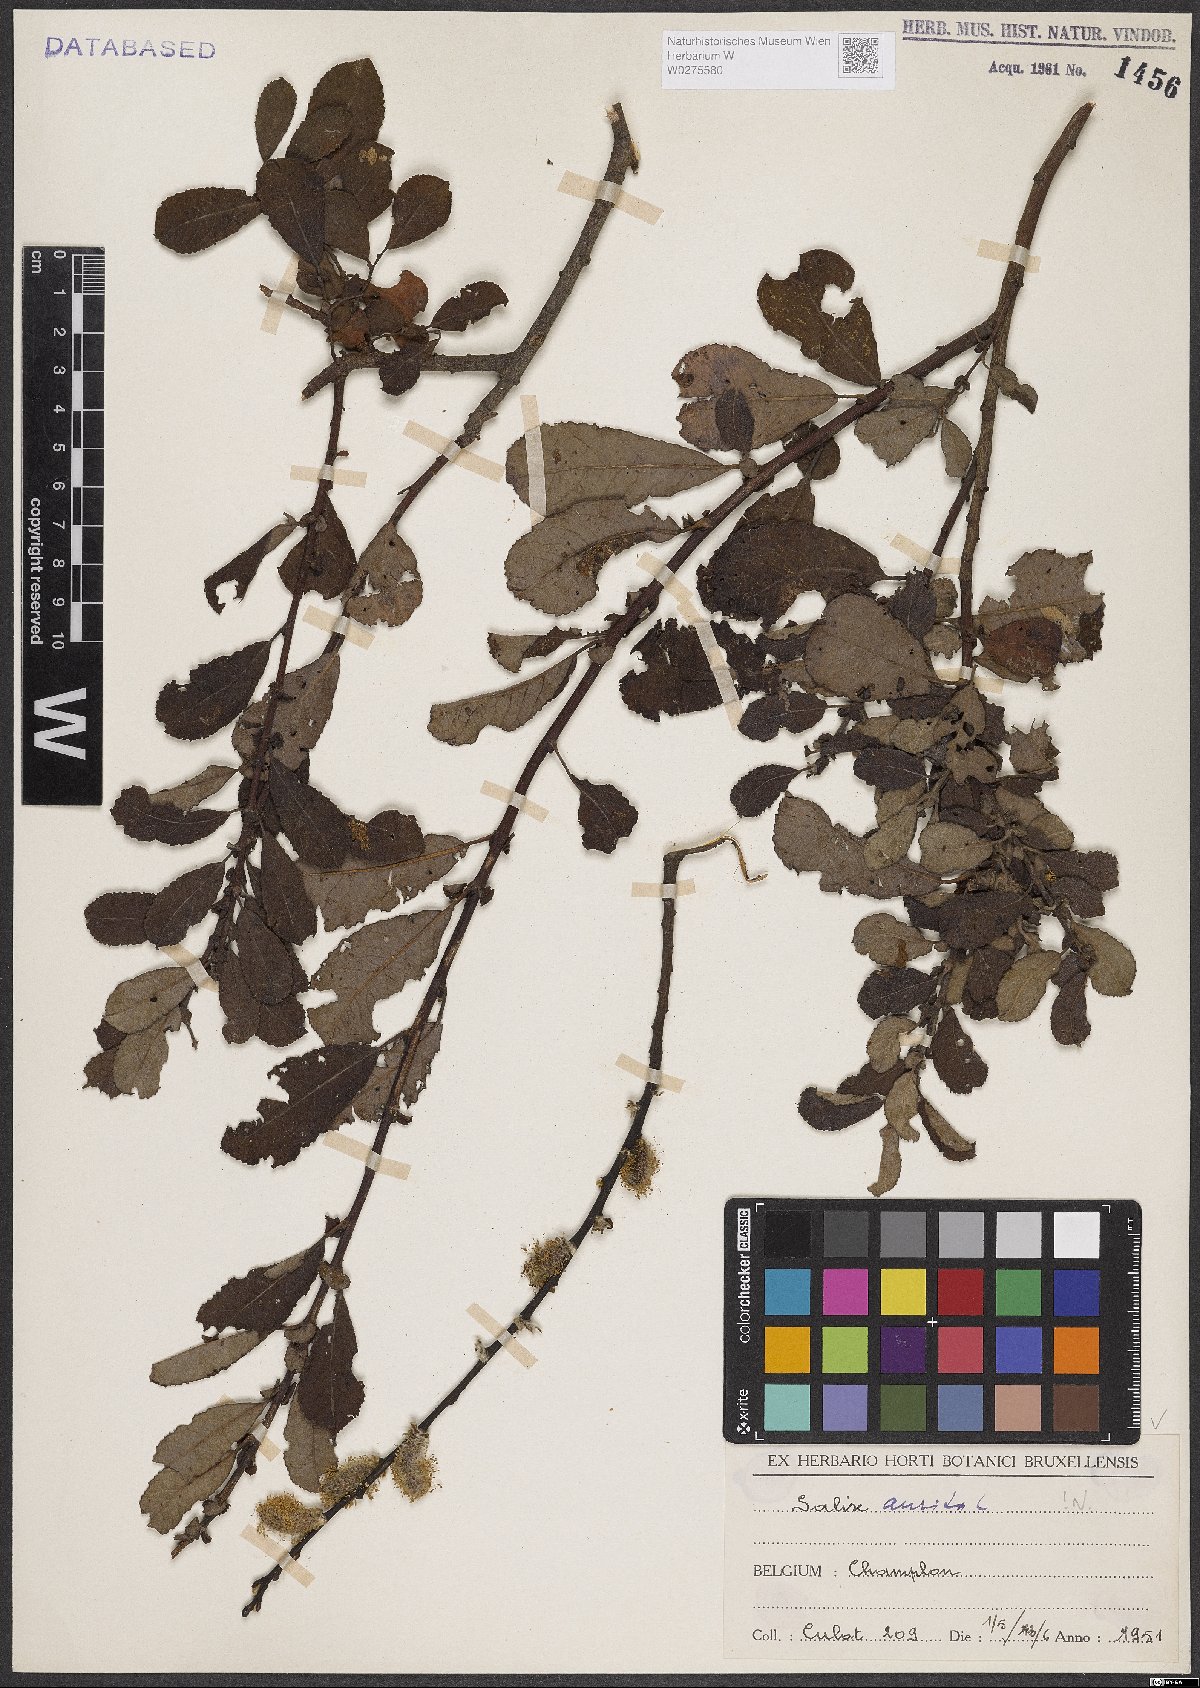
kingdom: Plantae
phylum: Tracheophyta
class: Magnoliopsida
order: Malpighiales
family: Salicaceae
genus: Salix
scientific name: Salix aurita
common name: Eared willow
